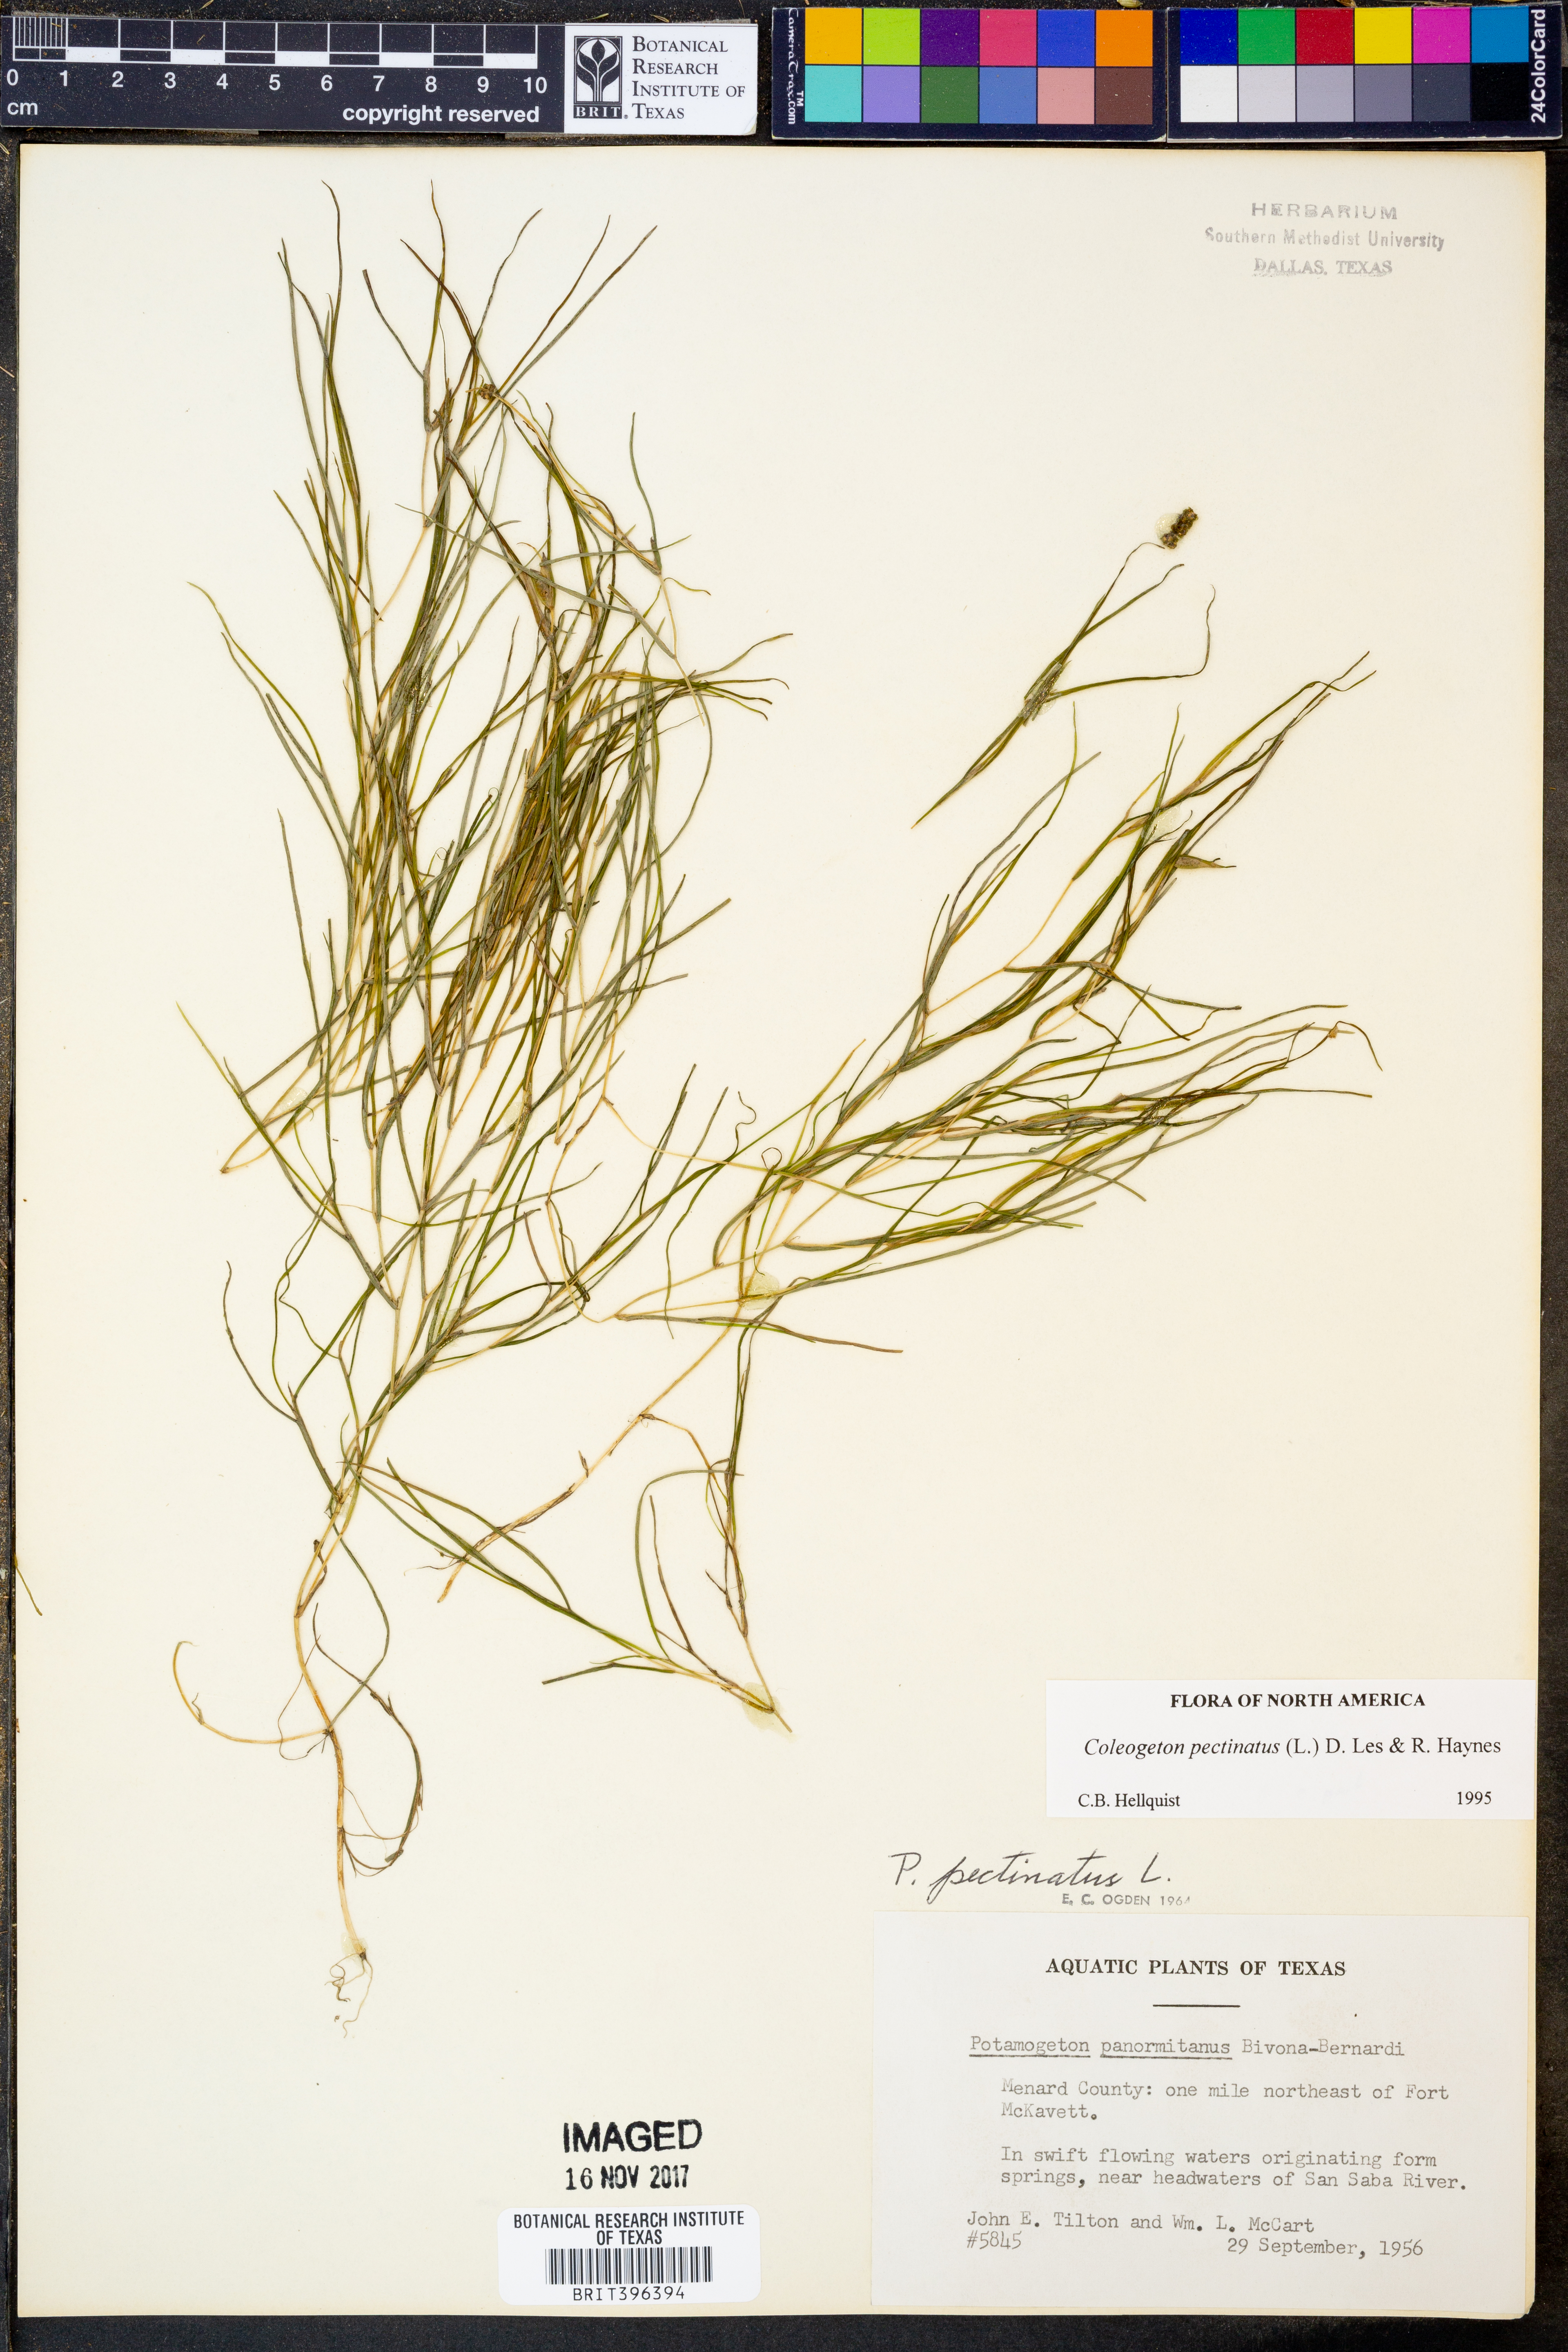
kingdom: Plantae
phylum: Tracheophyta
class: Liliopsida
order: Alismatales
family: Potamogetonaceae
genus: Stuckenia
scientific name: Stuckenia pectinata
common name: Sago pondweed
